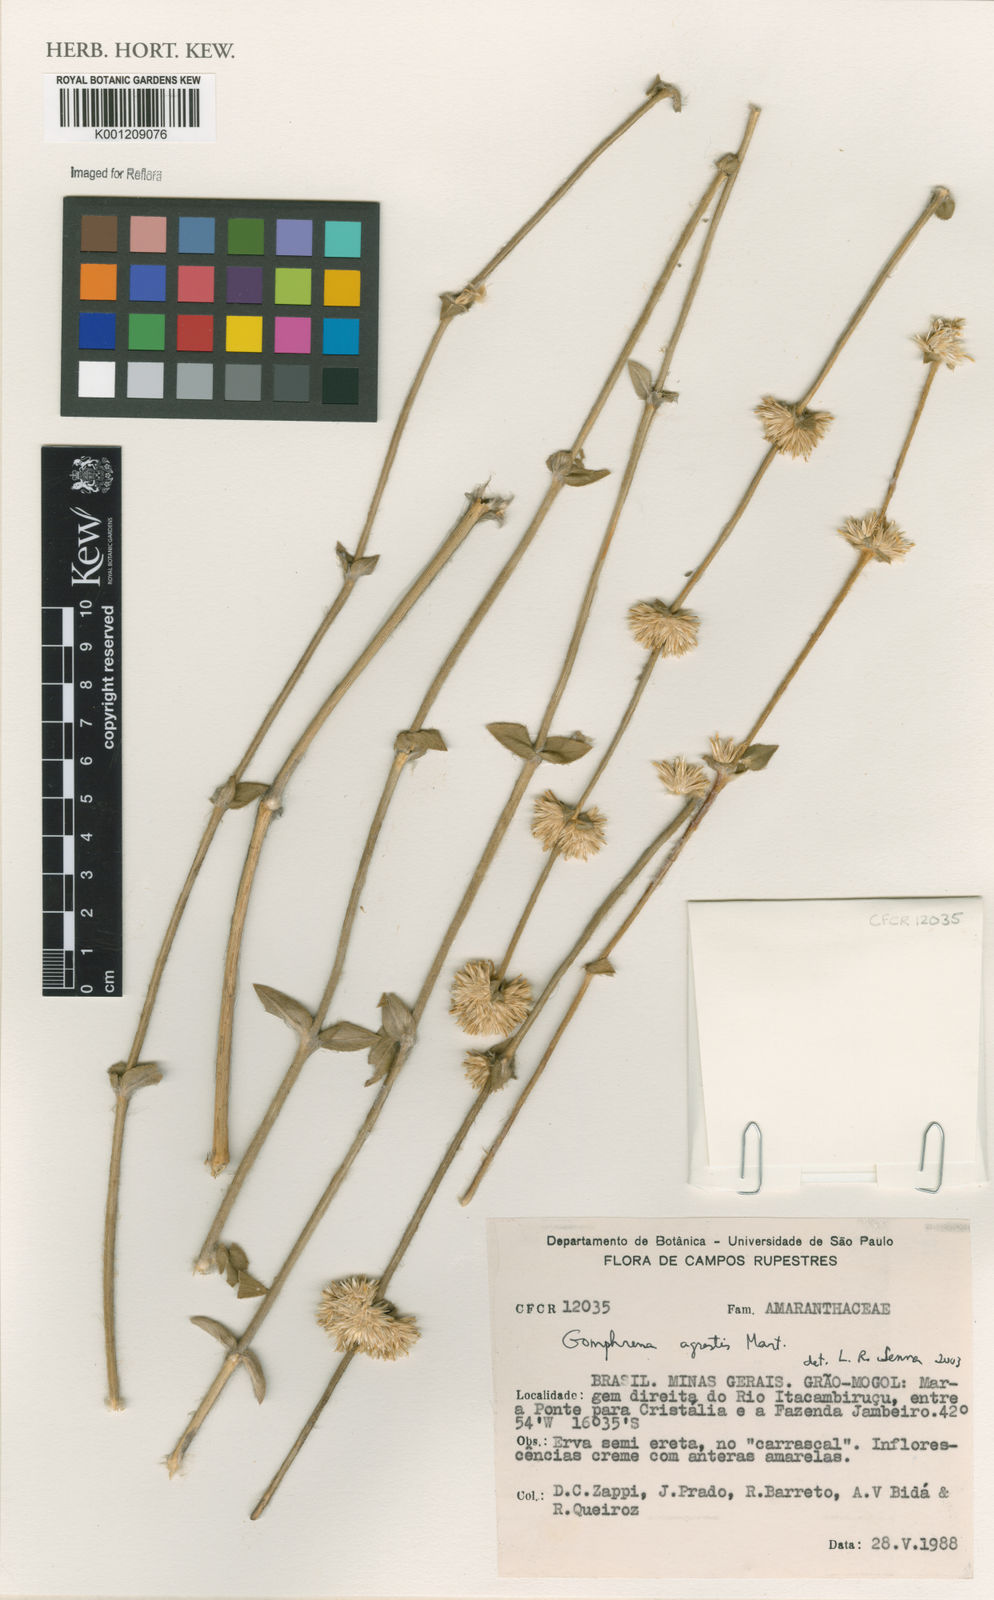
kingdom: Plantae
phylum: Tracheophyta
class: Magnoliopsida
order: Caryophyllales
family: Amaranthaceae
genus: Gomphrena
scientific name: Gomphrena agrestis
